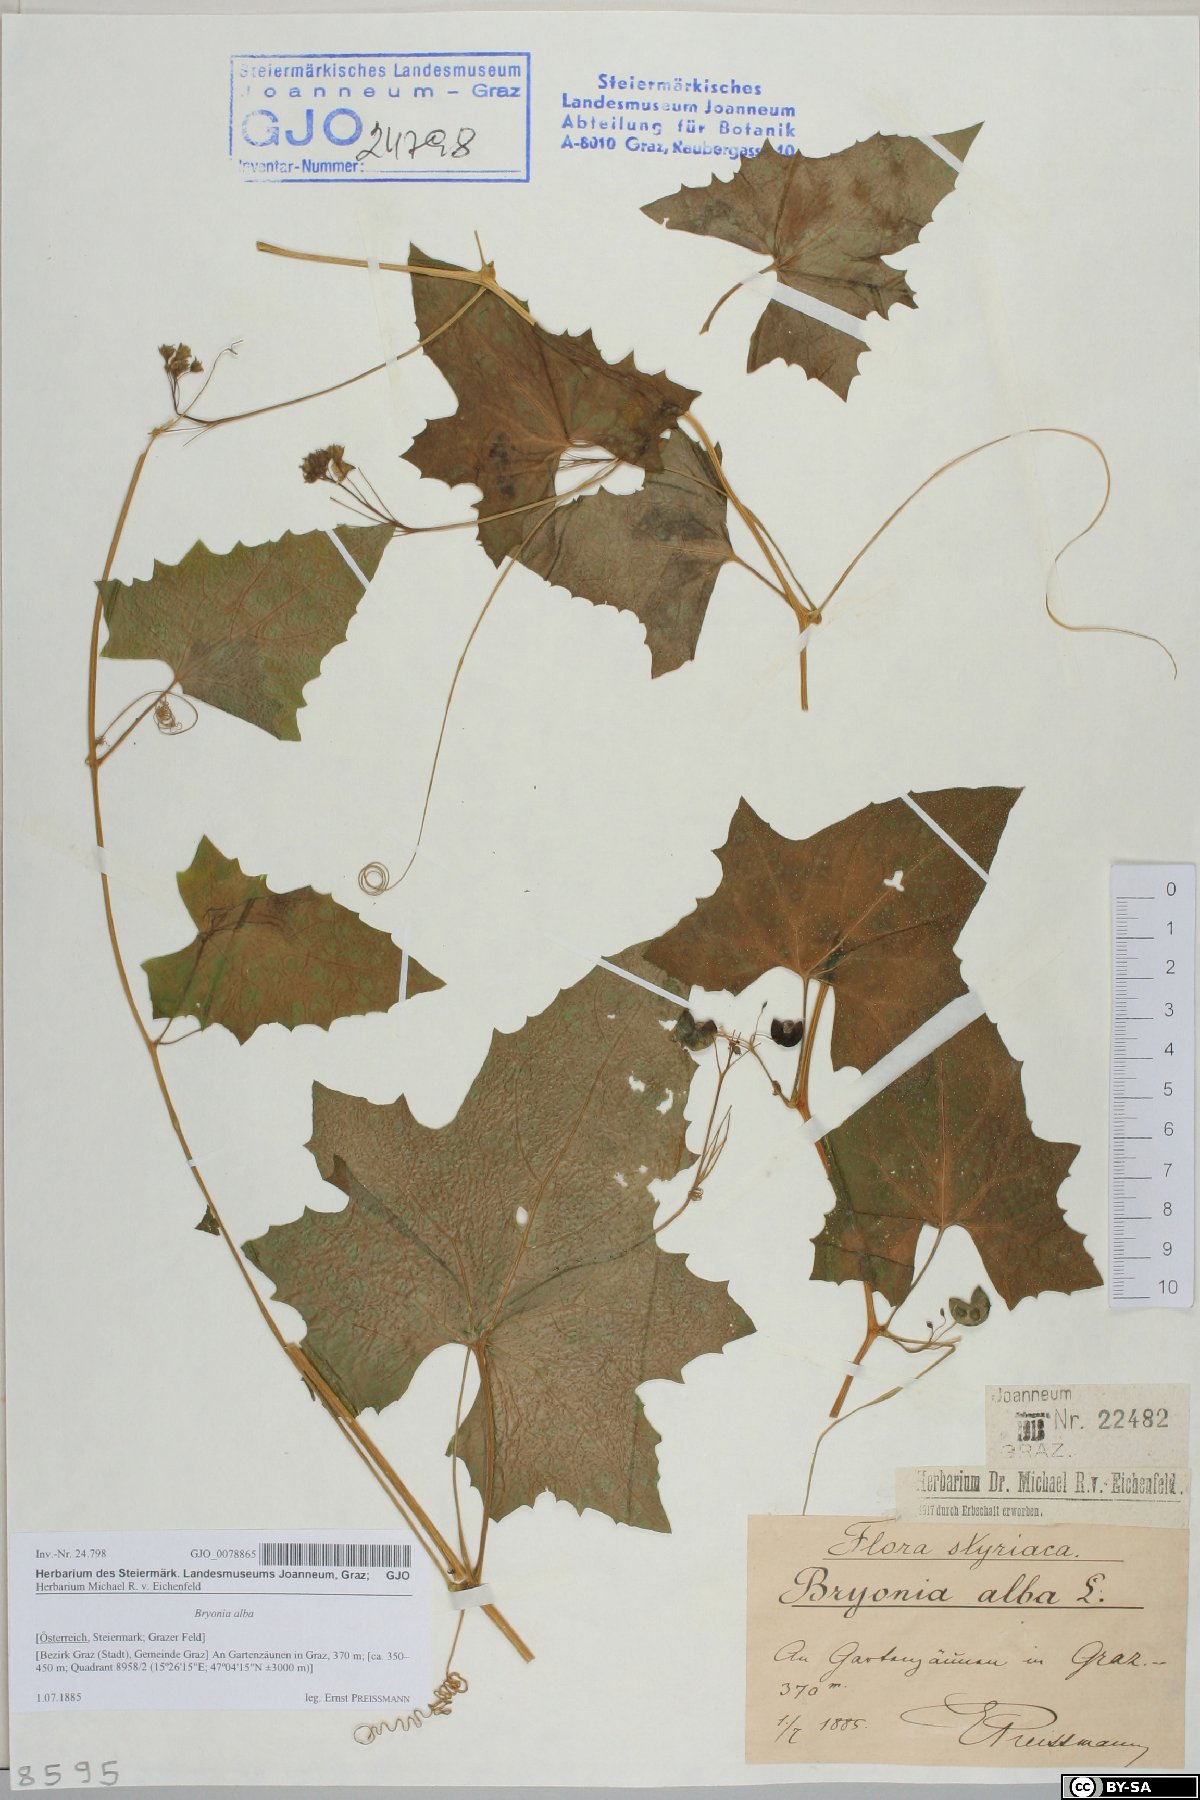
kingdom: Plantae
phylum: Tracheophyta
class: Magnoliopsida
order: Cucurbitales
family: Cucurbitaceae
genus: Bryonia
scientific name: Bryonia alba
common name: White bryony
